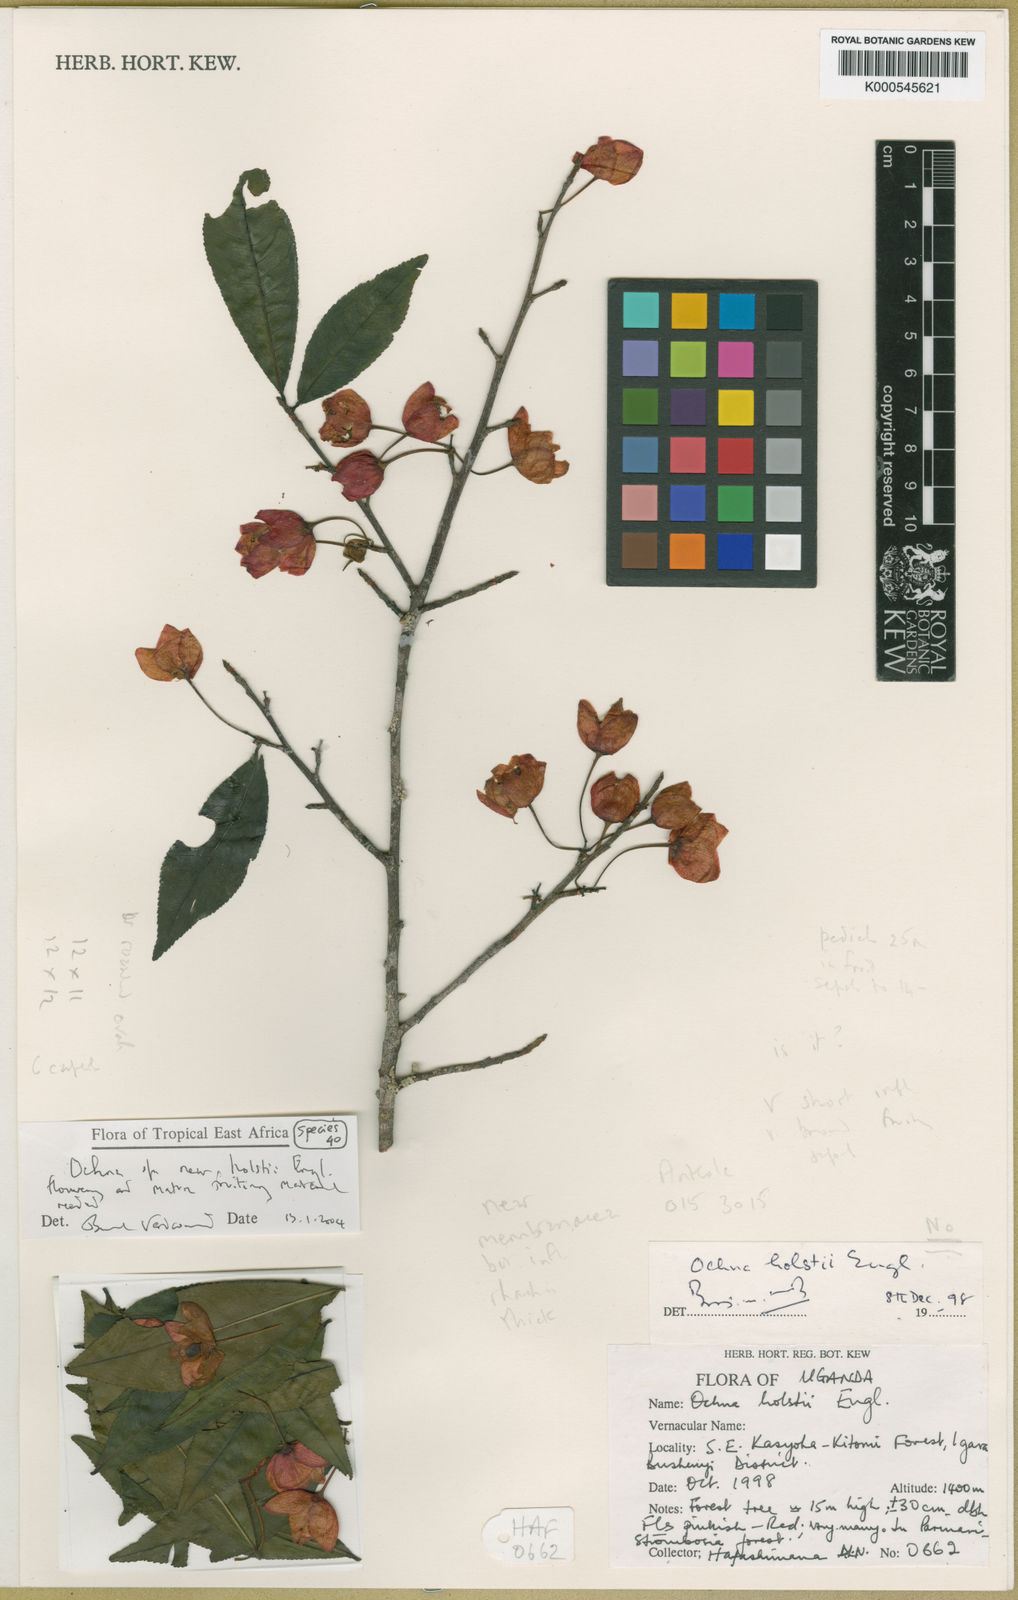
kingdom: Plantae
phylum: Tracheophyta
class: Magnoliopsida
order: Malpighiales
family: Ochnaceae
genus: Ochna
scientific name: Ochna holstii
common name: Red ironwood
